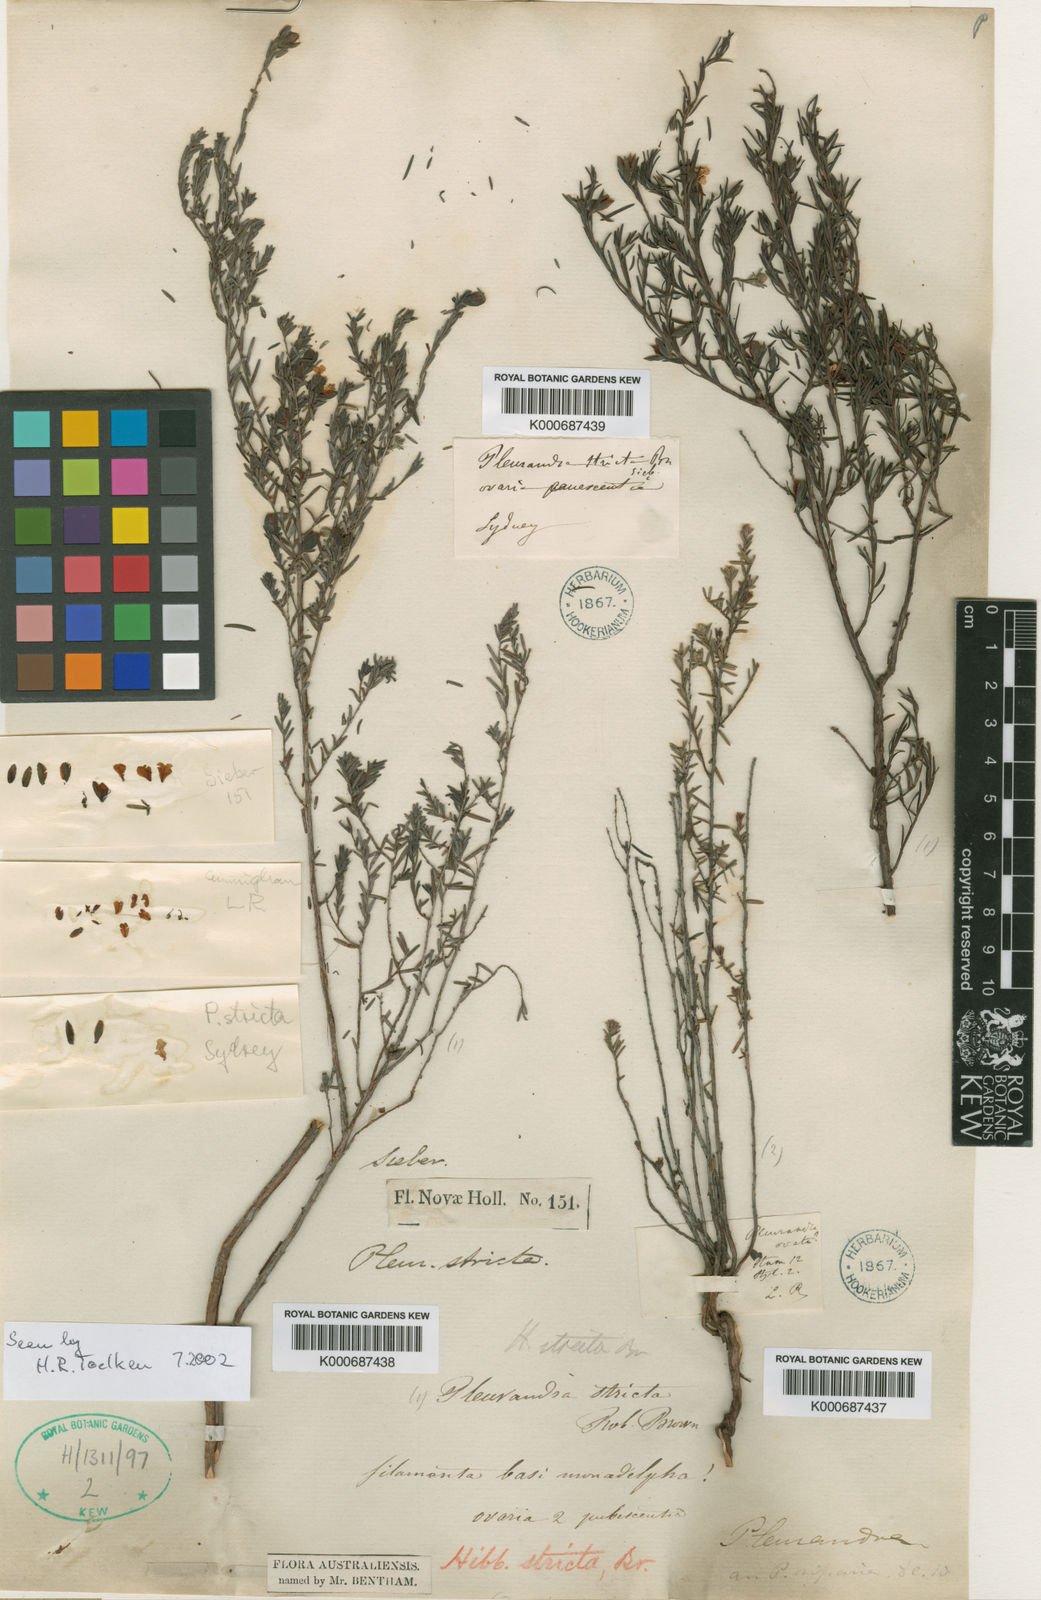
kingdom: Plantae
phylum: Tracheophyta
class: Magnoliopsida
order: Dilleniales
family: Dilleniaceae
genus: Hibbertia
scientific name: Hibbertia stricta
